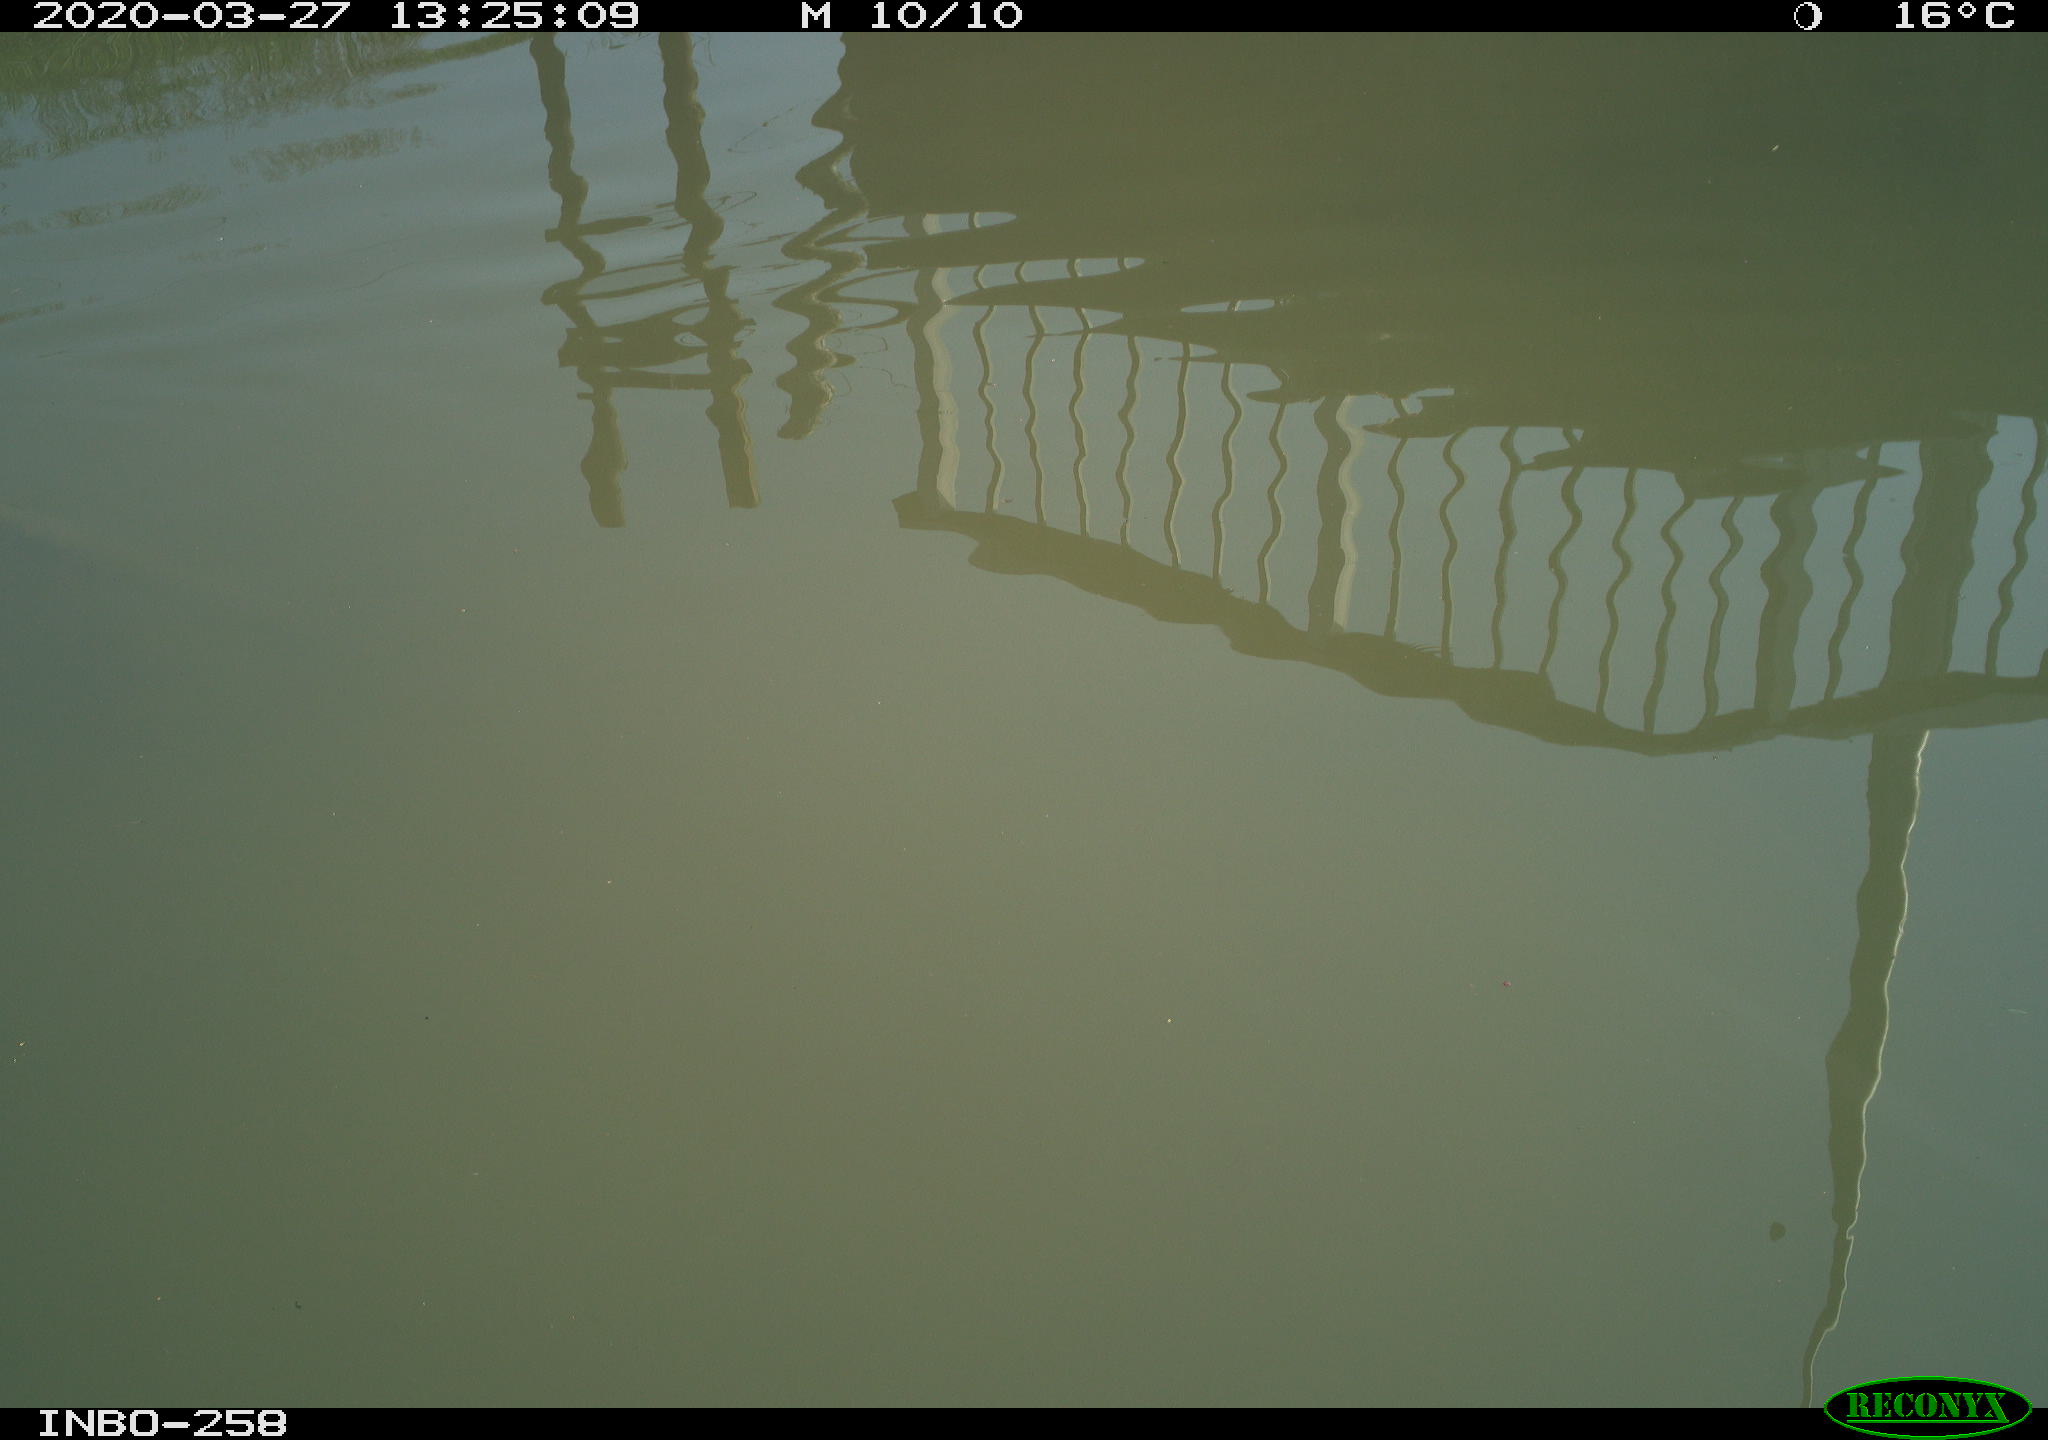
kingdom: Animalia
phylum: Chordata
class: Aves
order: Gruiformes
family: Rallidae
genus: Gallinula
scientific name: Gallinula chloropus
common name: Common moorhen
